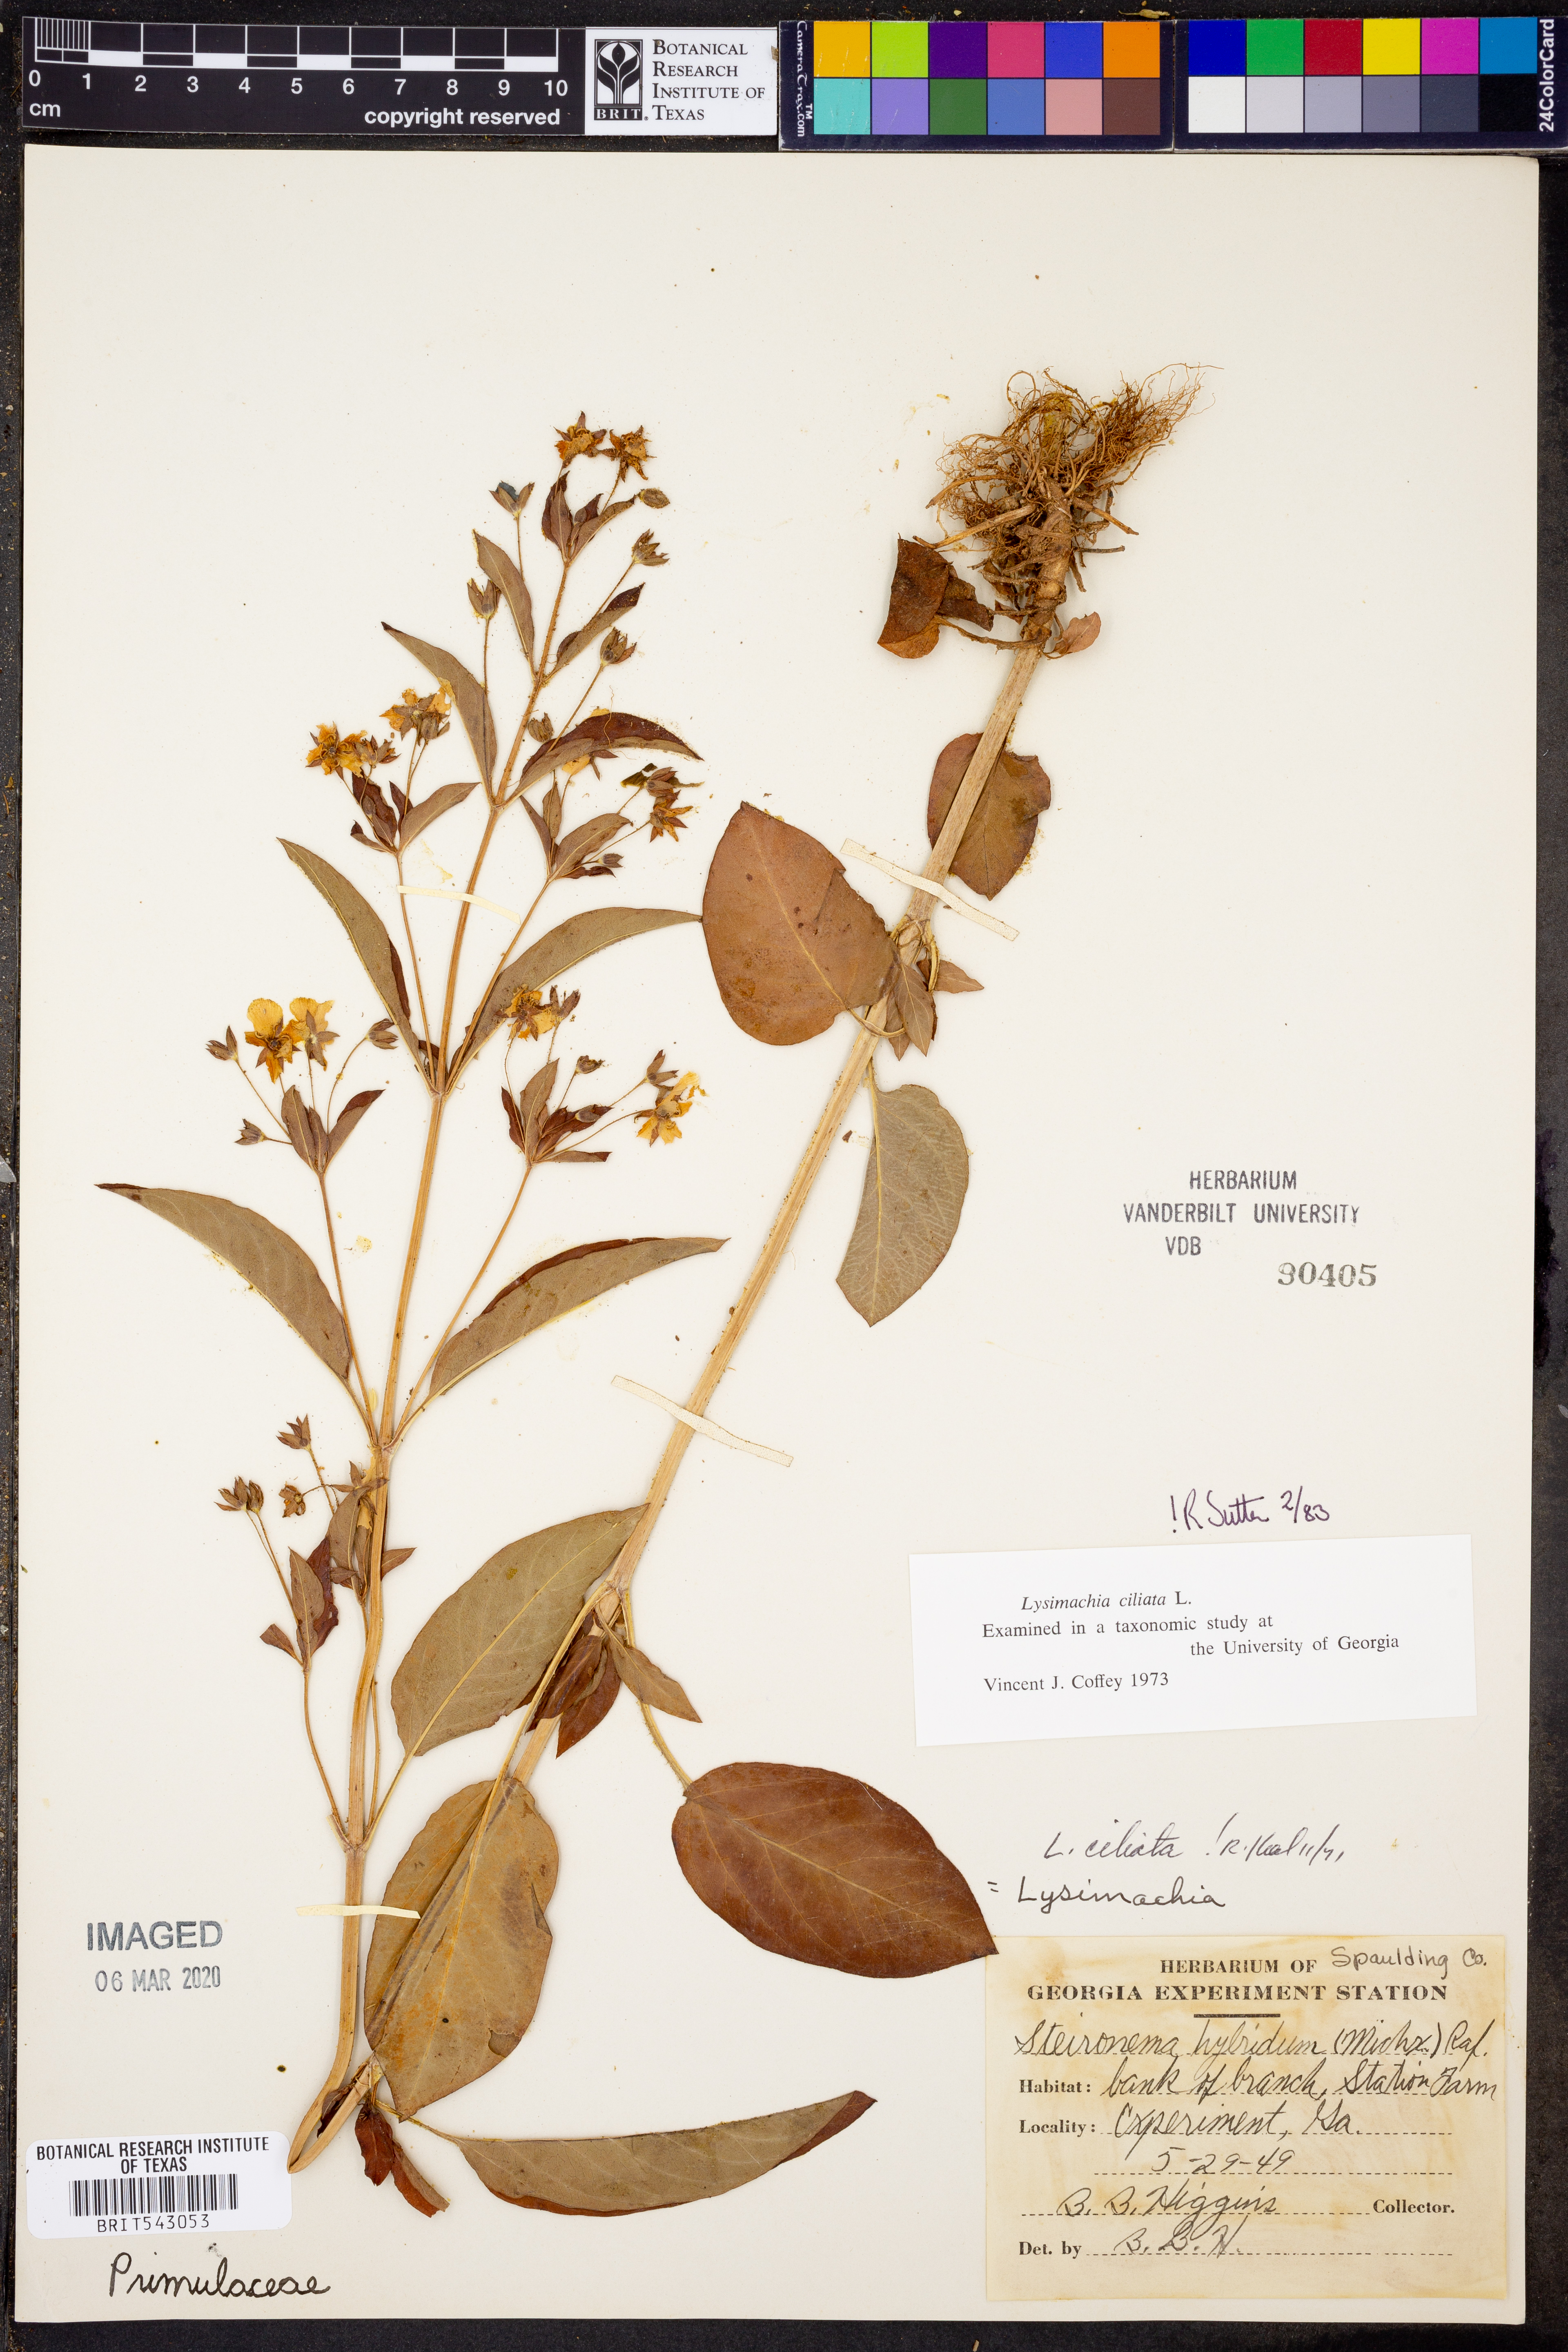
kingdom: Plantae
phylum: Tracheophyta
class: Magnoliopsida
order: Ericales
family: Primulaceae
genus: Lysimachia
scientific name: Lysimachia ciliata
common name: Fringed loosestrife
